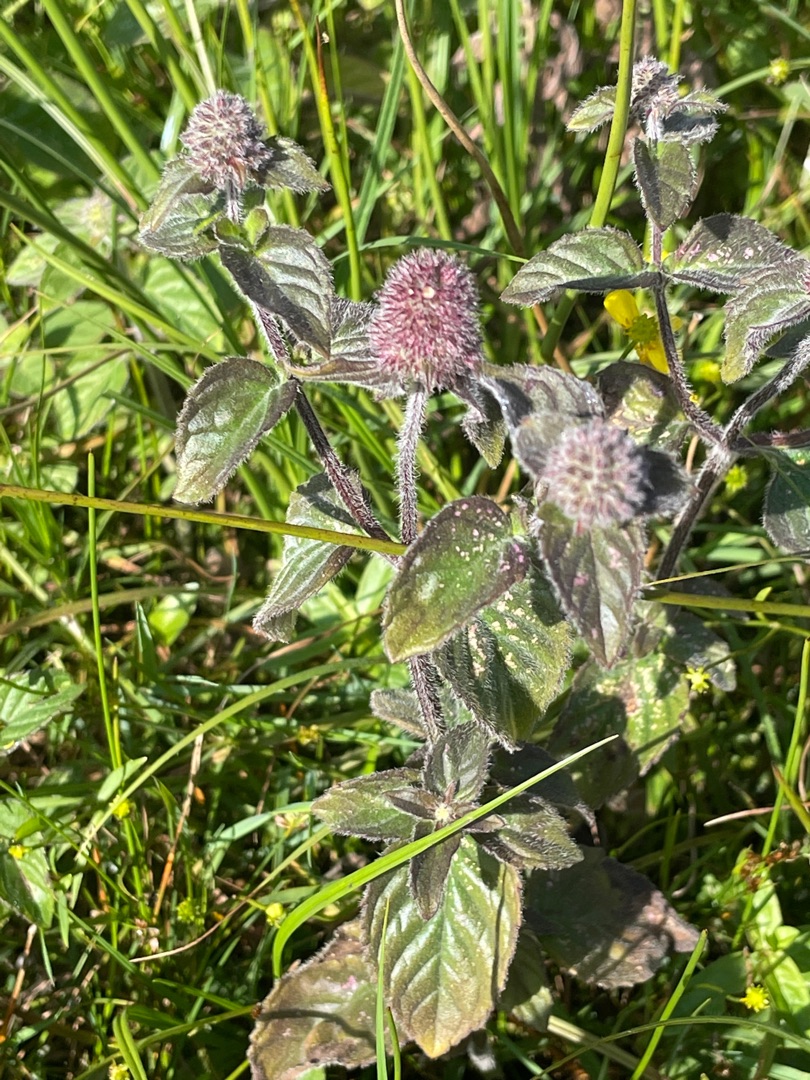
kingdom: Plantae
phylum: Tracheophyta
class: Magnoliopsida
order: Lamiales
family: Lamiaceae
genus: Mentha
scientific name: Mentha aquatica
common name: Vand-mynte
